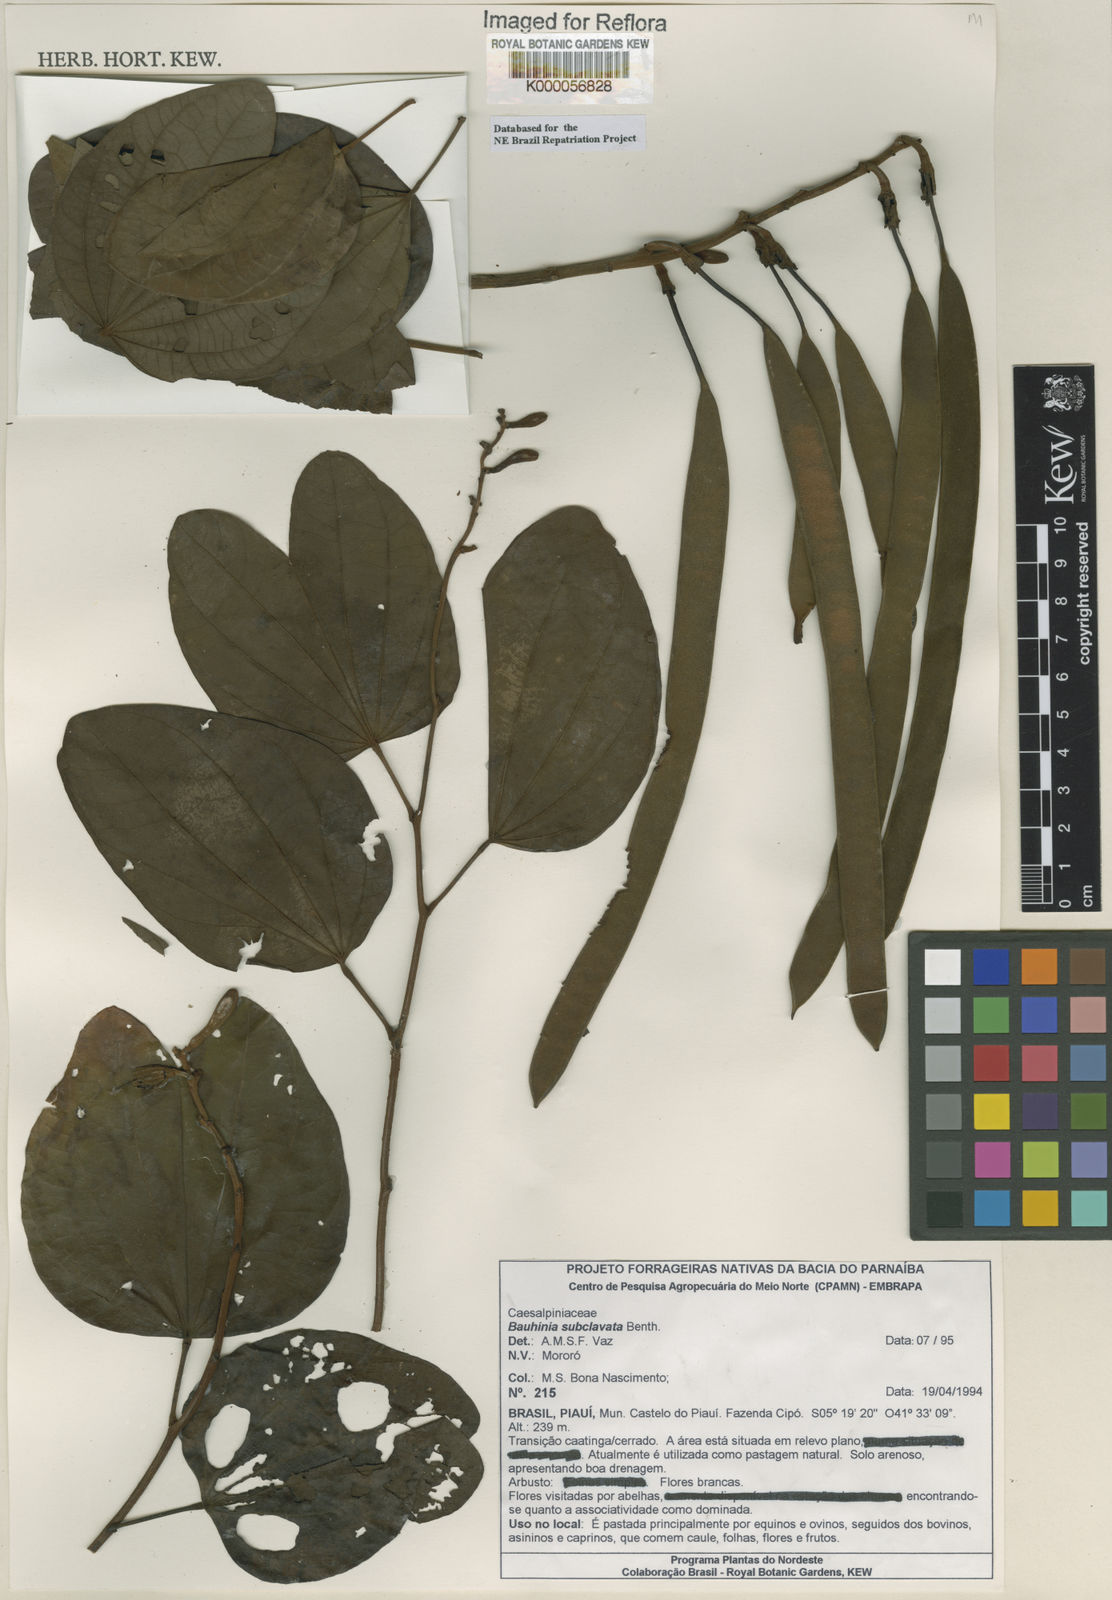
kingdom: Plantae
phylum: Tracheophyta
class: Magnoliopsida
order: Fabales
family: Fabaceae
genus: Bauhinia
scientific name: Bauhinia subclavata
